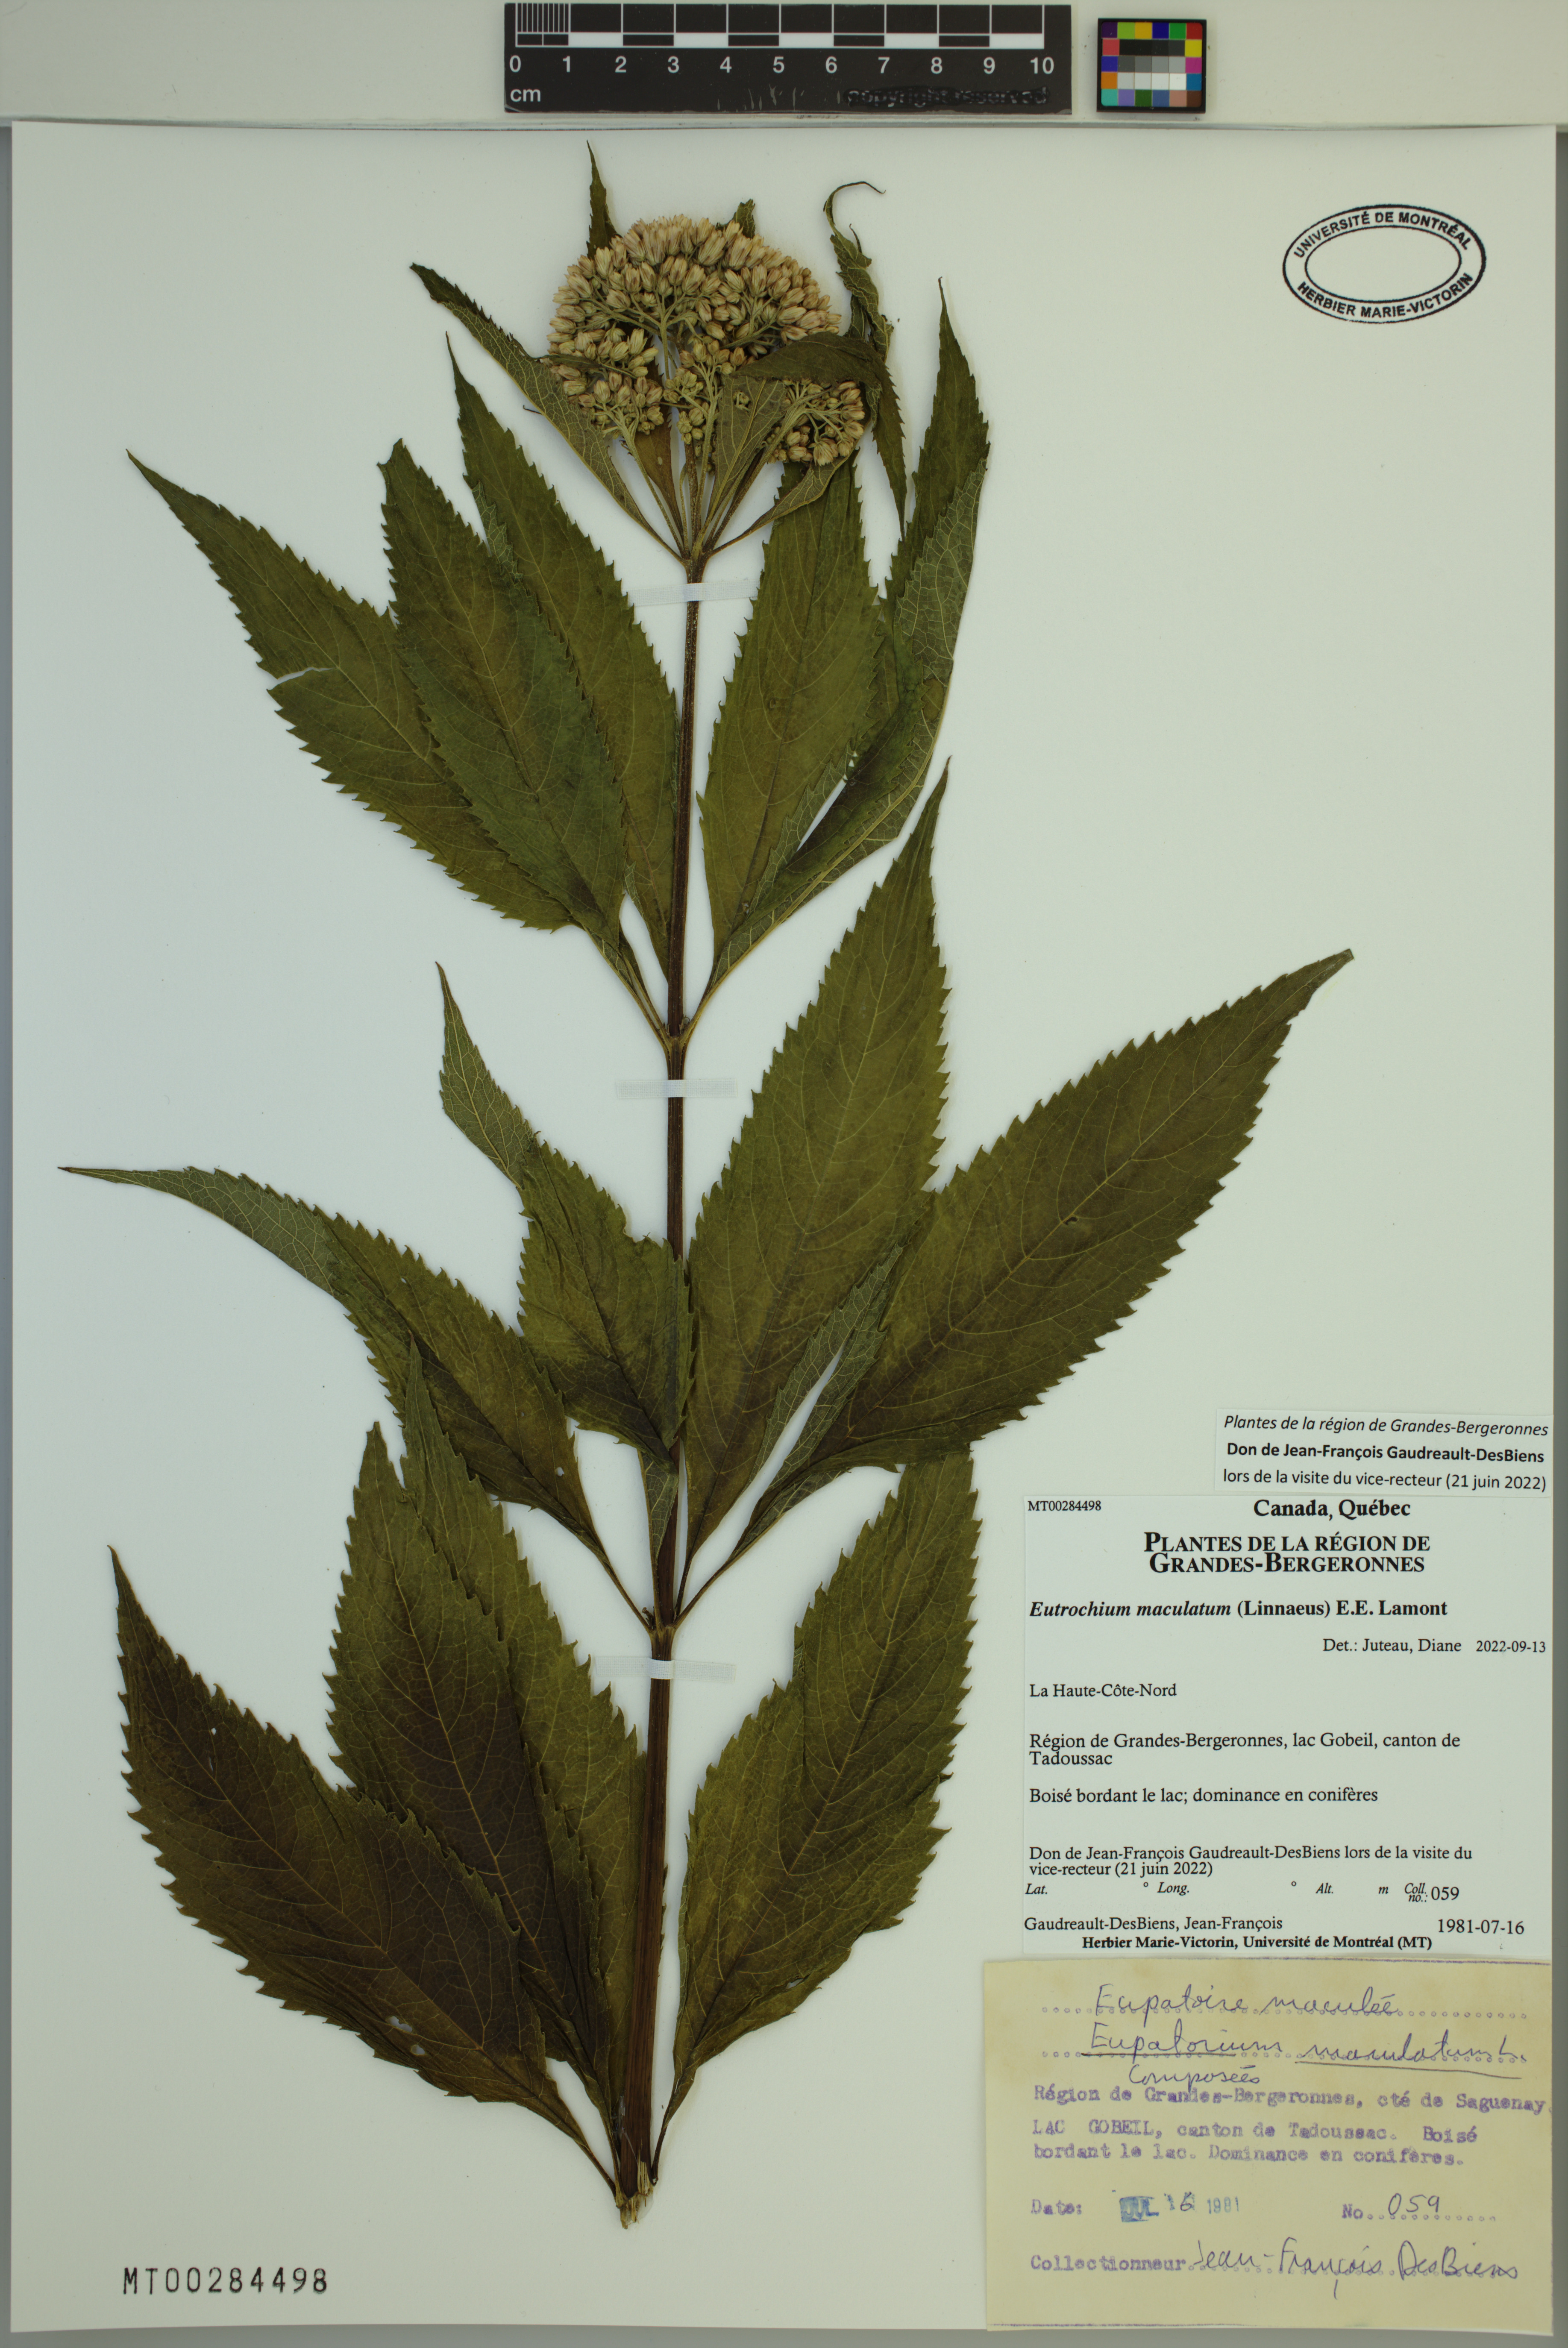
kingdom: Plantae
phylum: Tracheophyta
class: Magnoliopsida
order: Asterales
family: Asteraceae
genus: Eutrochium
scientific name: Eutrochium maculatum
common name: Spotted joe pye weed
